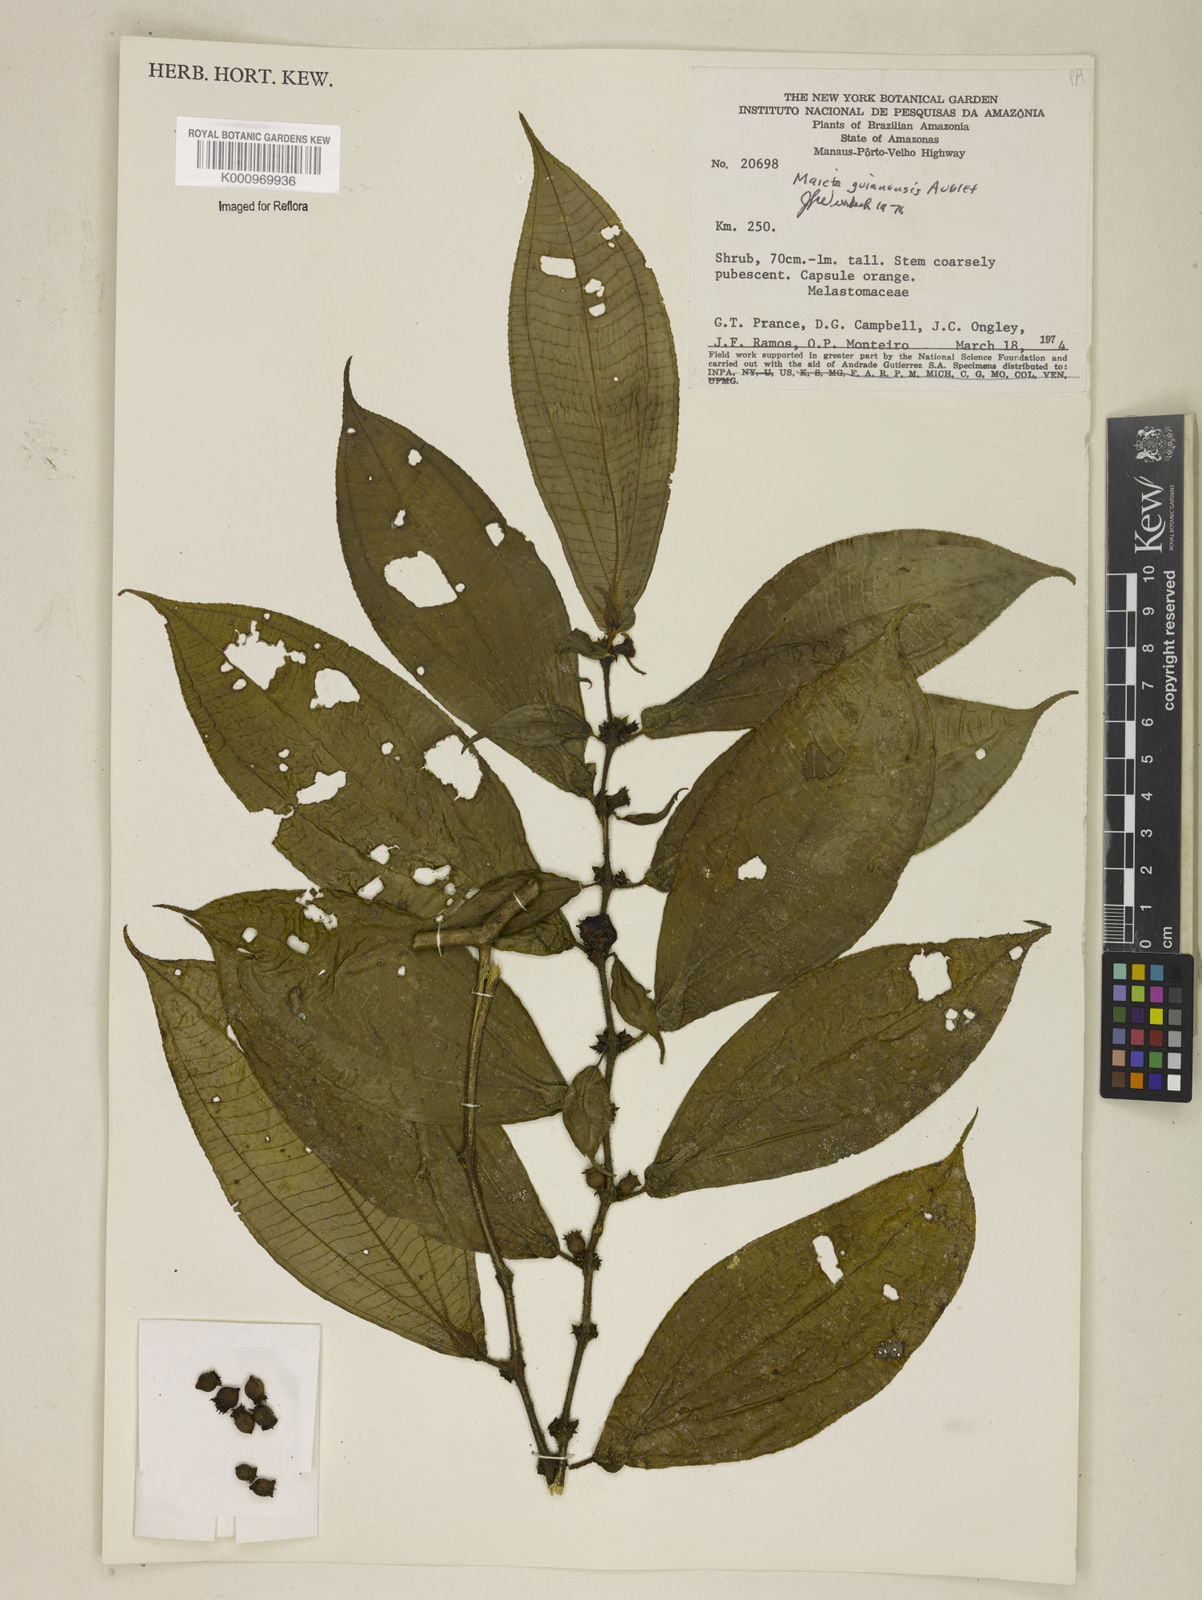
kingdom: Plantae
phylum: Tracheophyta
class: Magnoliopsida
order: Myrtales
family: Melastomataceae
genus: Miconia
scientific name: Miconia mayeta
